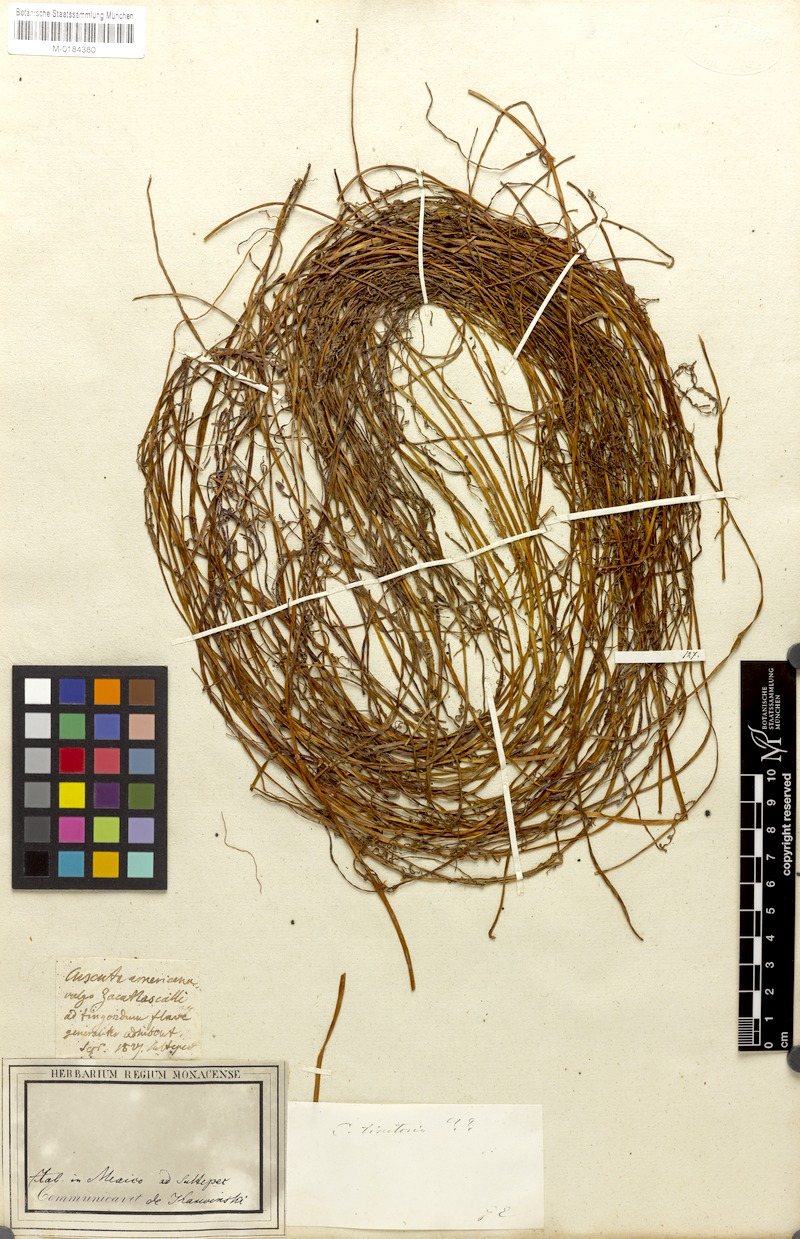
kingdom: Plantae
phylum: Tracheophyta
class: Magnoliopsida
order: Solanales
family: Convolvulaceae
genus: Cuscuta
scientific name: Cuscuta tinctoria
